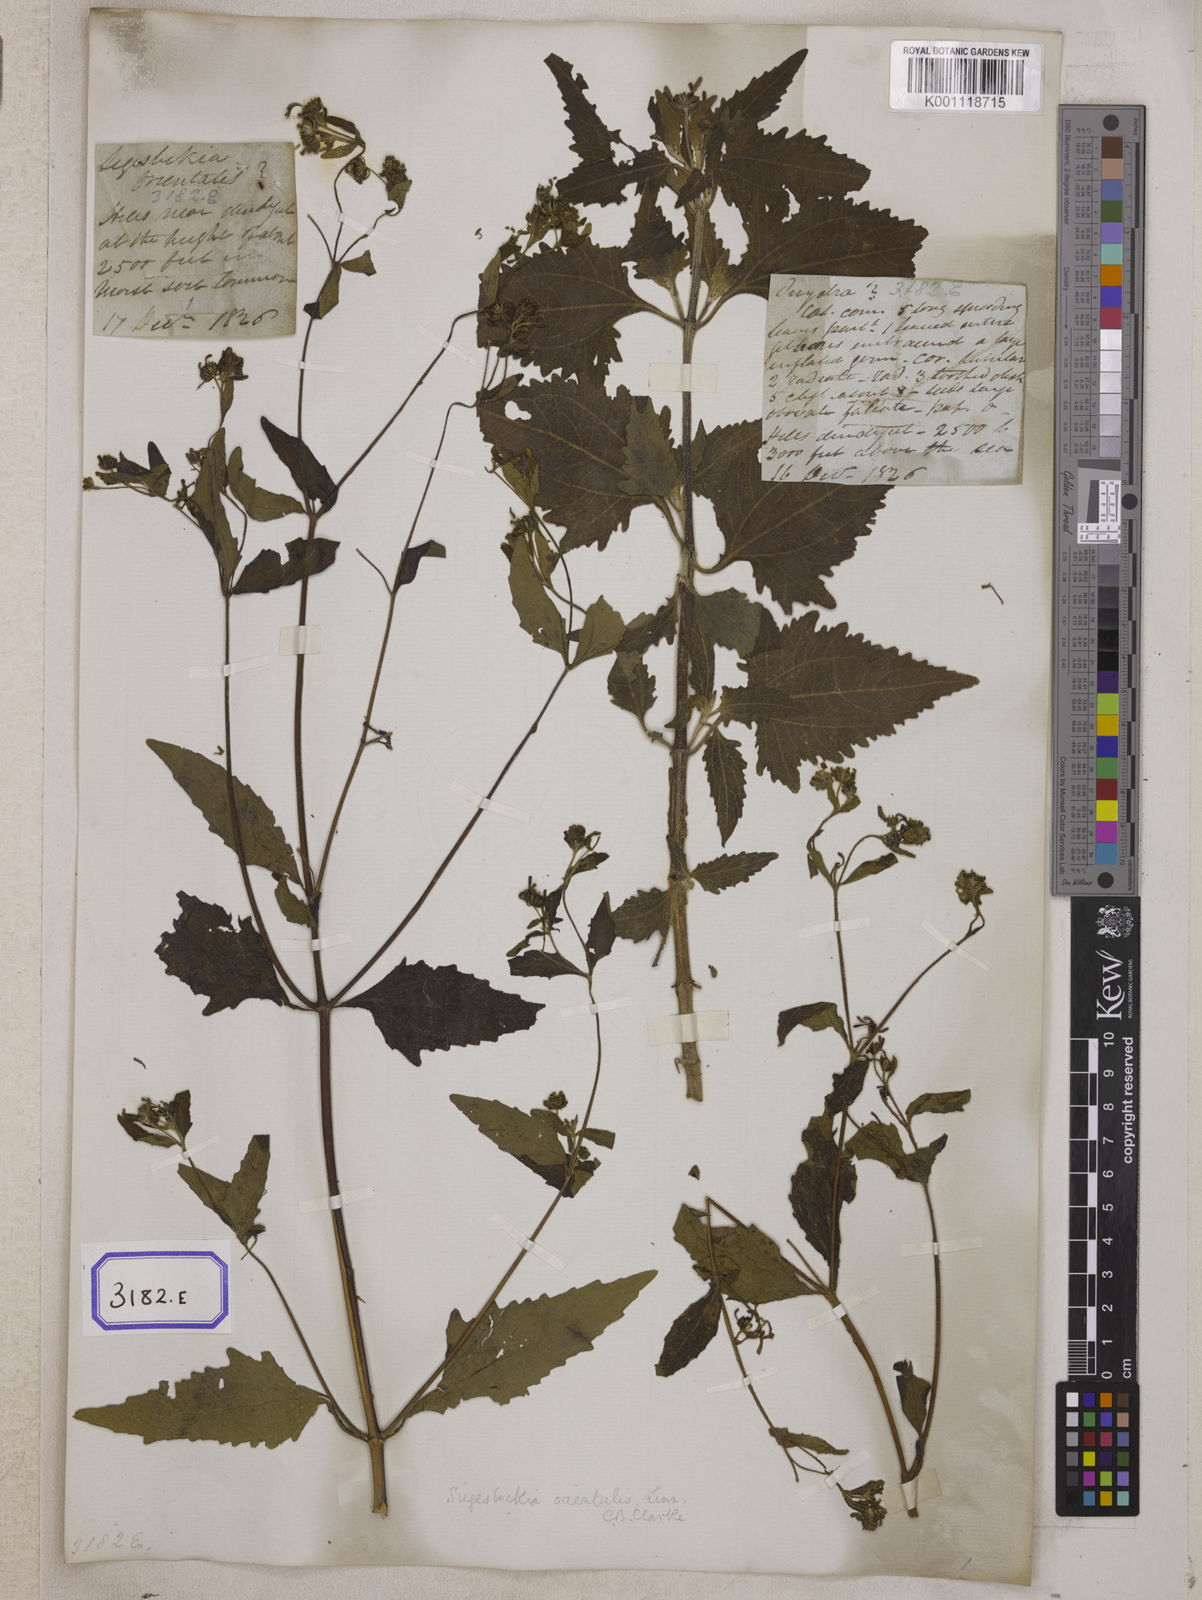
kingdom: Plantae
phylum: Tracheophyta
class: Magnoliopsida
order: Asterales
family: Asteraceae
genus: Sigesbeckia
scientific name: Sigesbeckia orientalis
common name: Eastern st paul's-wort
